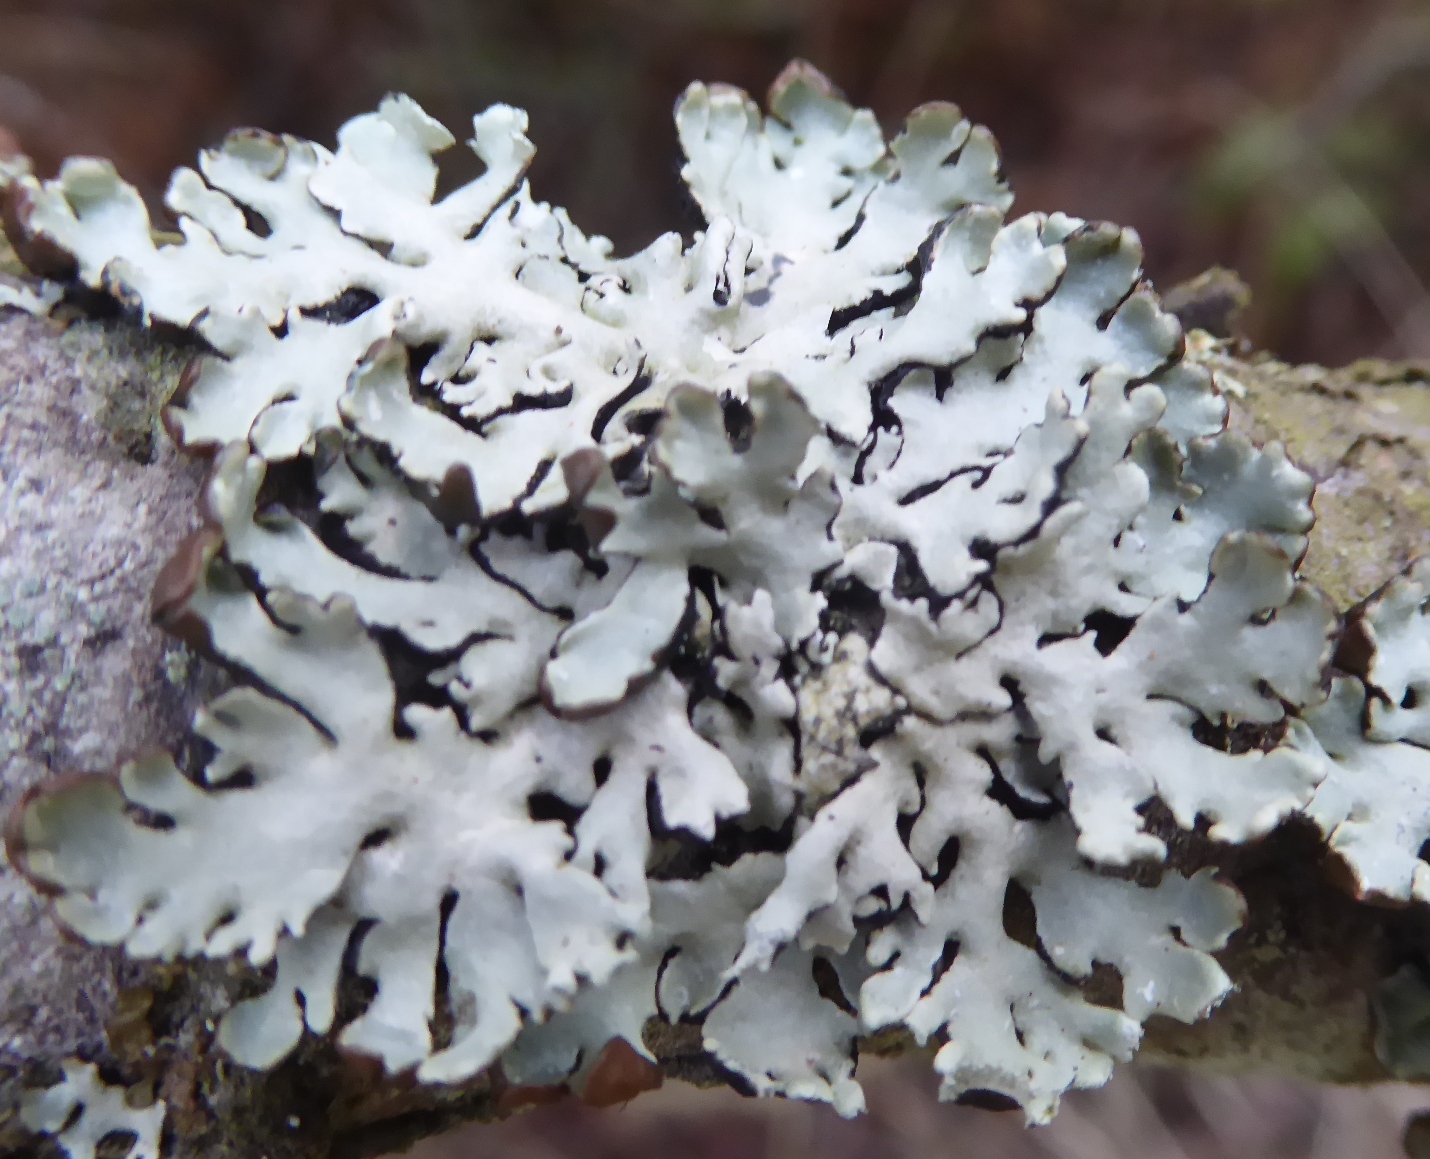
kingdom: Fungi
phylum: Ascomycota
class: Lecanoromycetes
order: Lecanorales
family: Parmeliaceae
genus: Hypogymnia
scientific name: Hypogymnia physodes
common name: almindelig kvistlav
